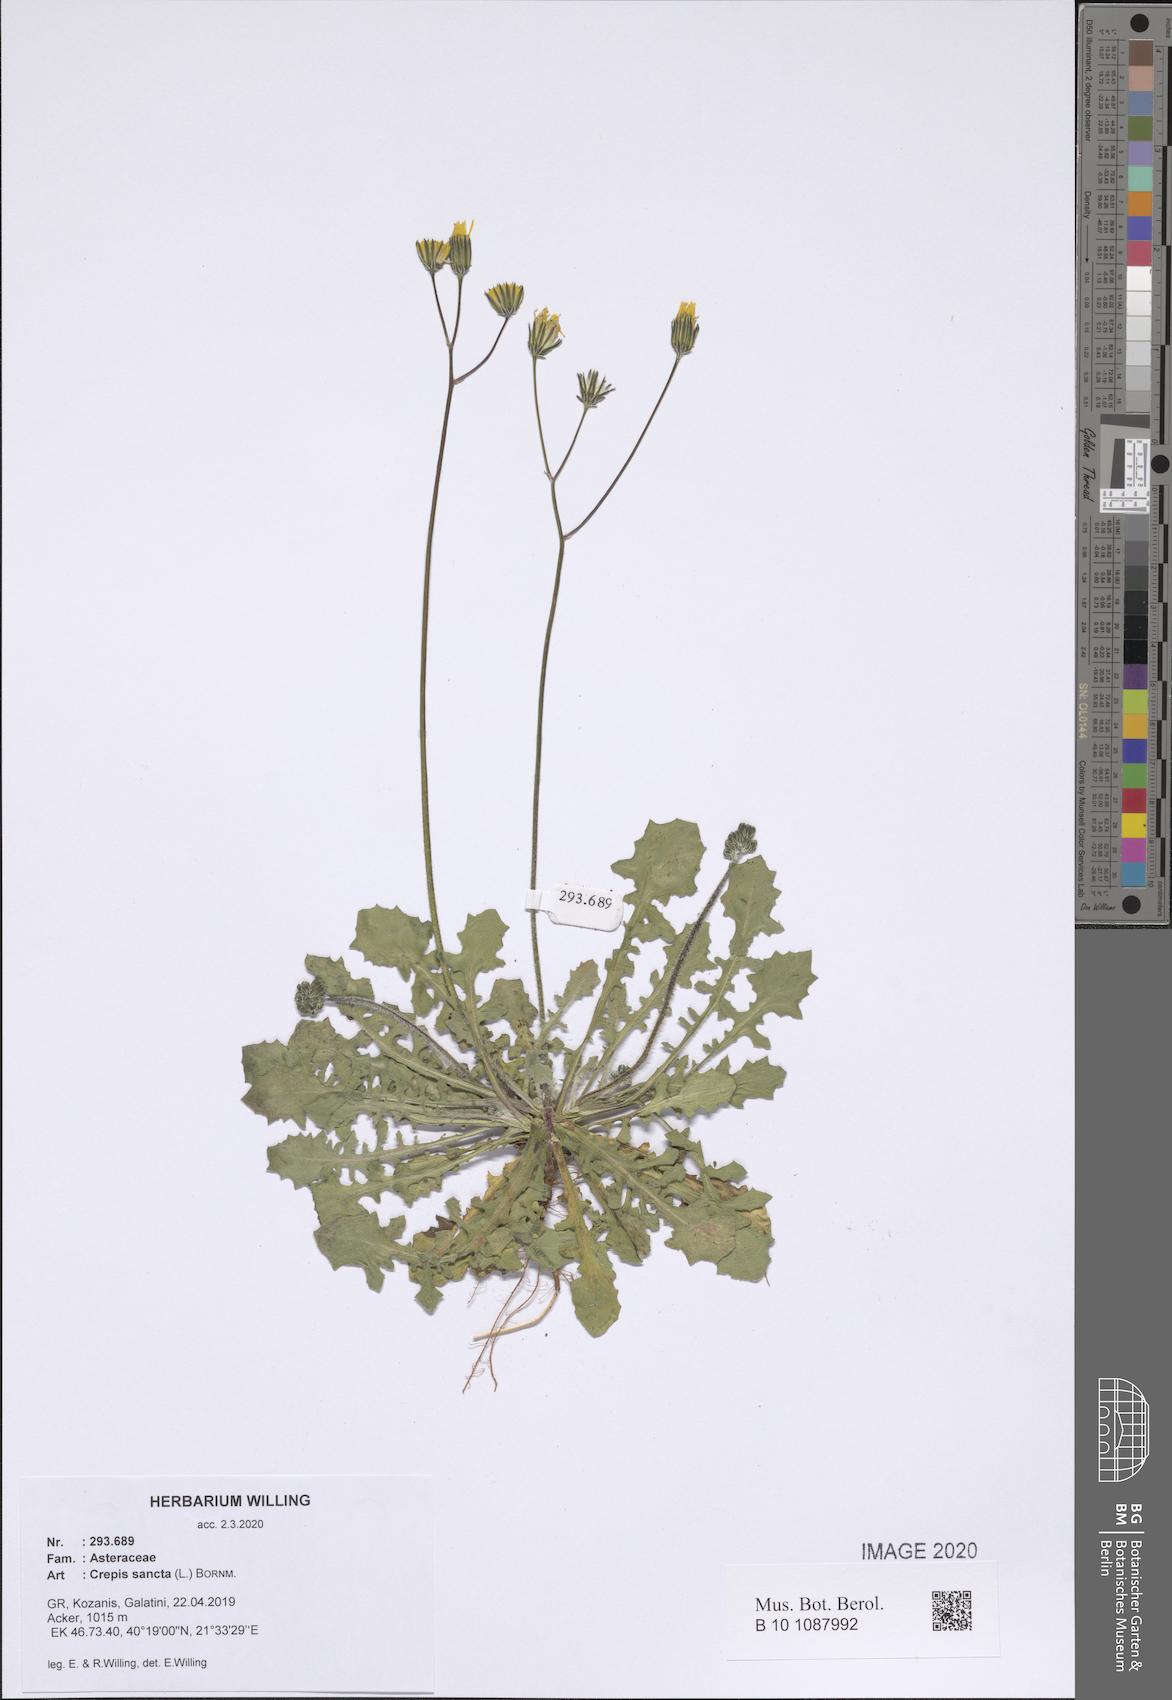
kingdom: Plantae
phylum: Tracheophyta
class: Magnoliopsida
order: Asterales
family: Asteraceae
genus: Crepis
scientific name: Crepis sancta
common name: Hawk's-beard
